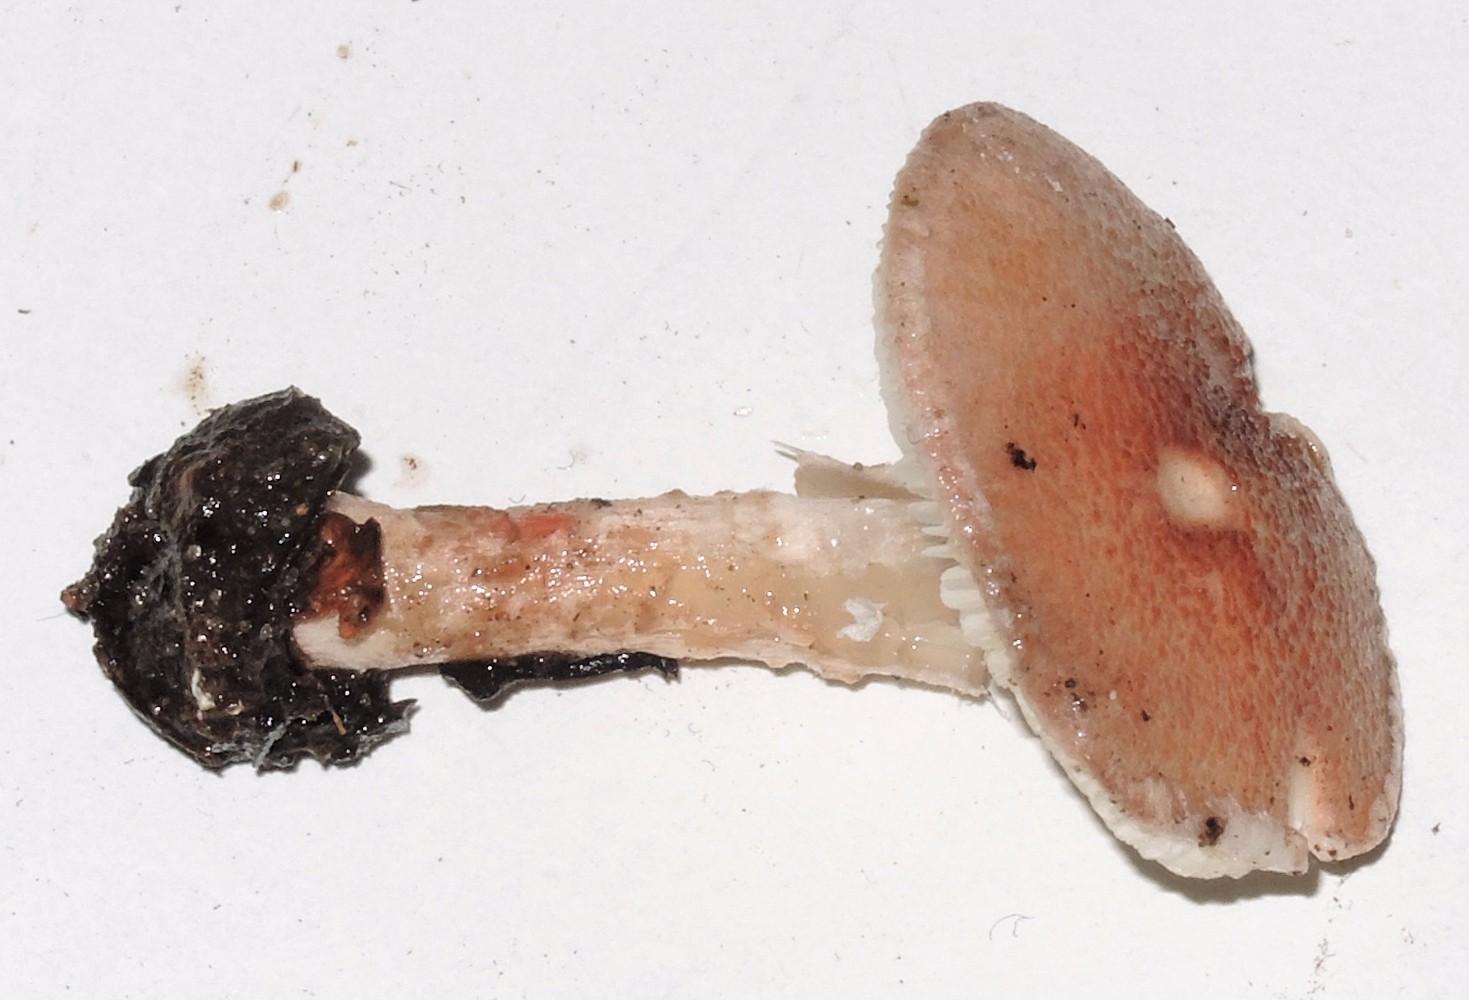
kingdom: Fungi
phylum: Basidiomycota
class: Agaricomycetes
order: Agaricales
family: Agaricaceae
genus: Lepiota
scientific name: Lepiota subincarnata
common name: kødfarvet parasolhat
